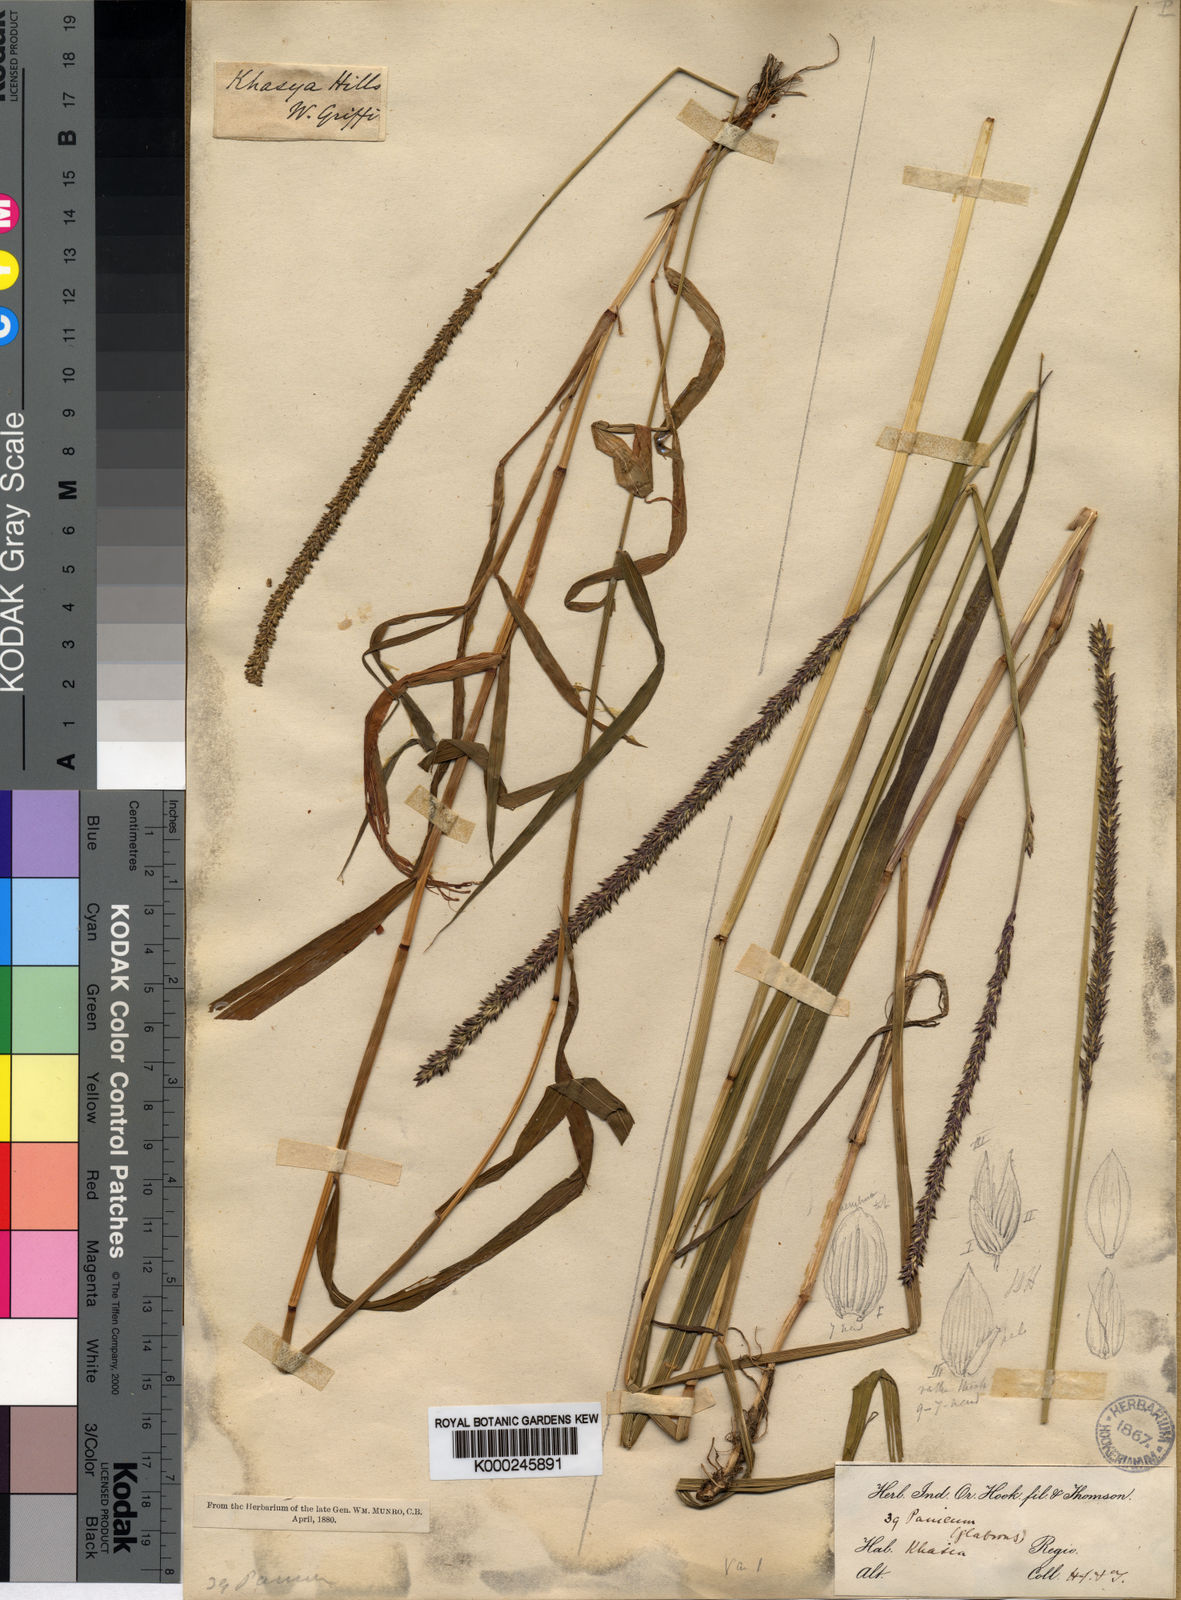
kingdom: Plantae
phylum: Tracheophyta
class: Liliopsida
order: Poales
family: Poaceae
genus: Sacciolepis
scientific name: Sacciolepis indica
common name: Glenwoodgrass
